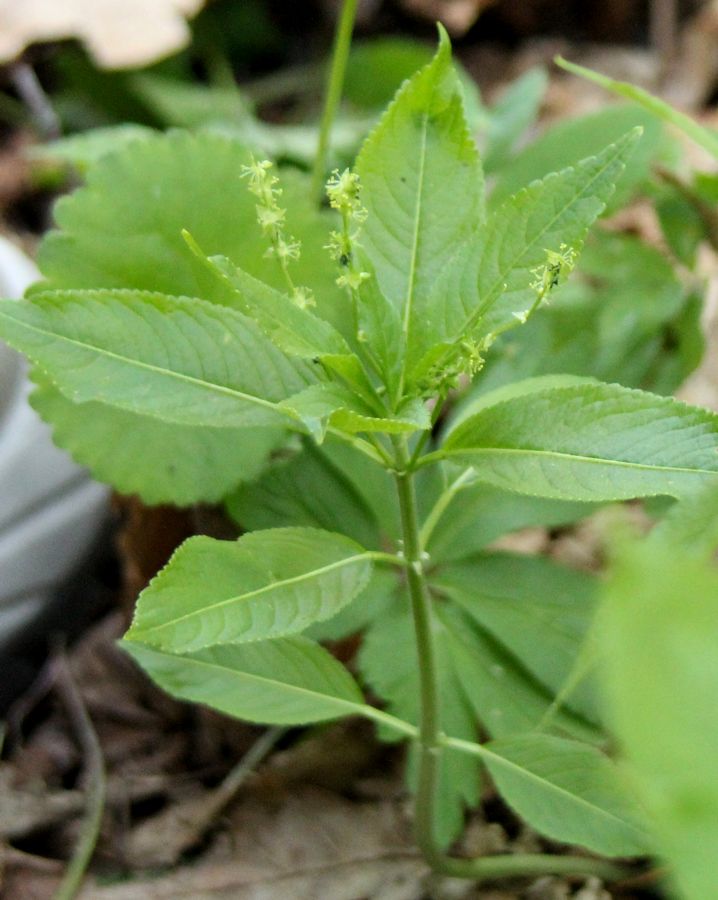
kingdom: Plantae
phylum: Tracheophyta
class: Magnoliopsida
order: Malpighiales
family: Euphorbiaceae
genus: Mercurialis
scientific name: Mercurialis perennis
